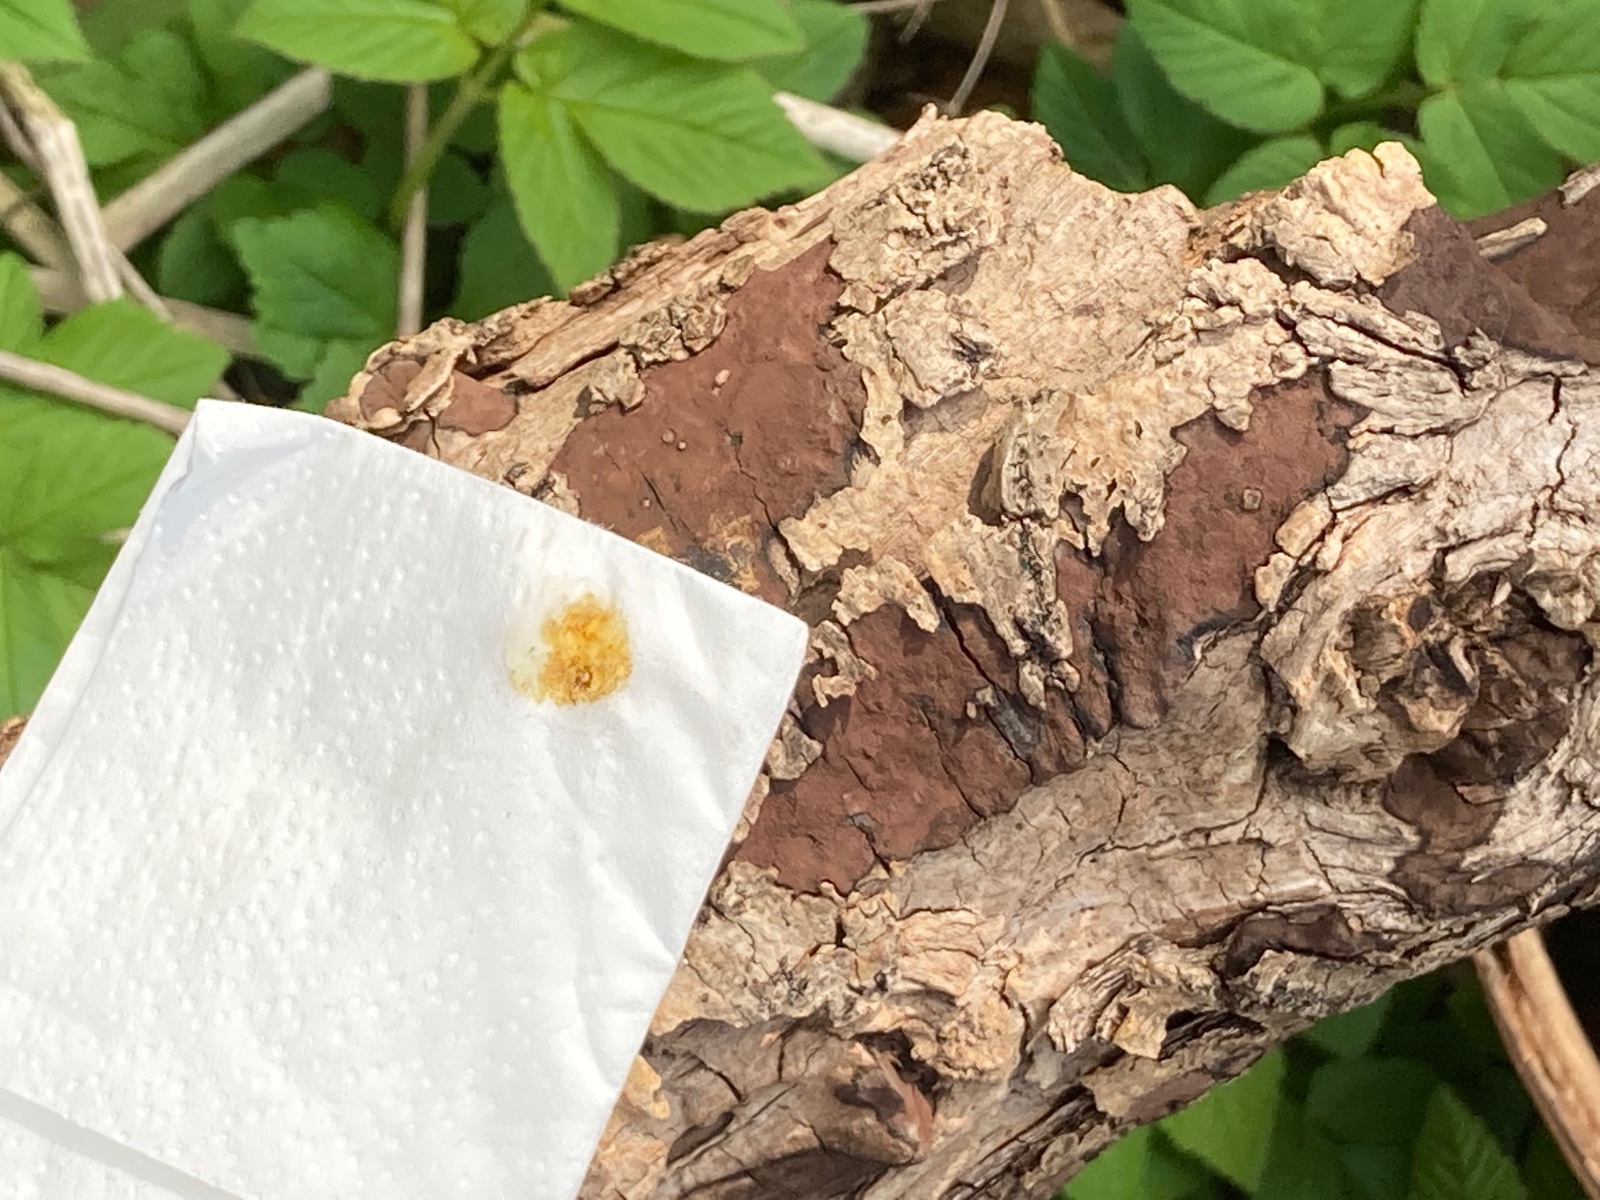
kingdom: Fungi
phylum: Ascomycota
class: Sordariomycetes
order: Xylariales
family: Hypoxylaceae
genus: Hypoxylon
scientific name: Hypoxylon petriniae
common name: nedsænket kulbær
